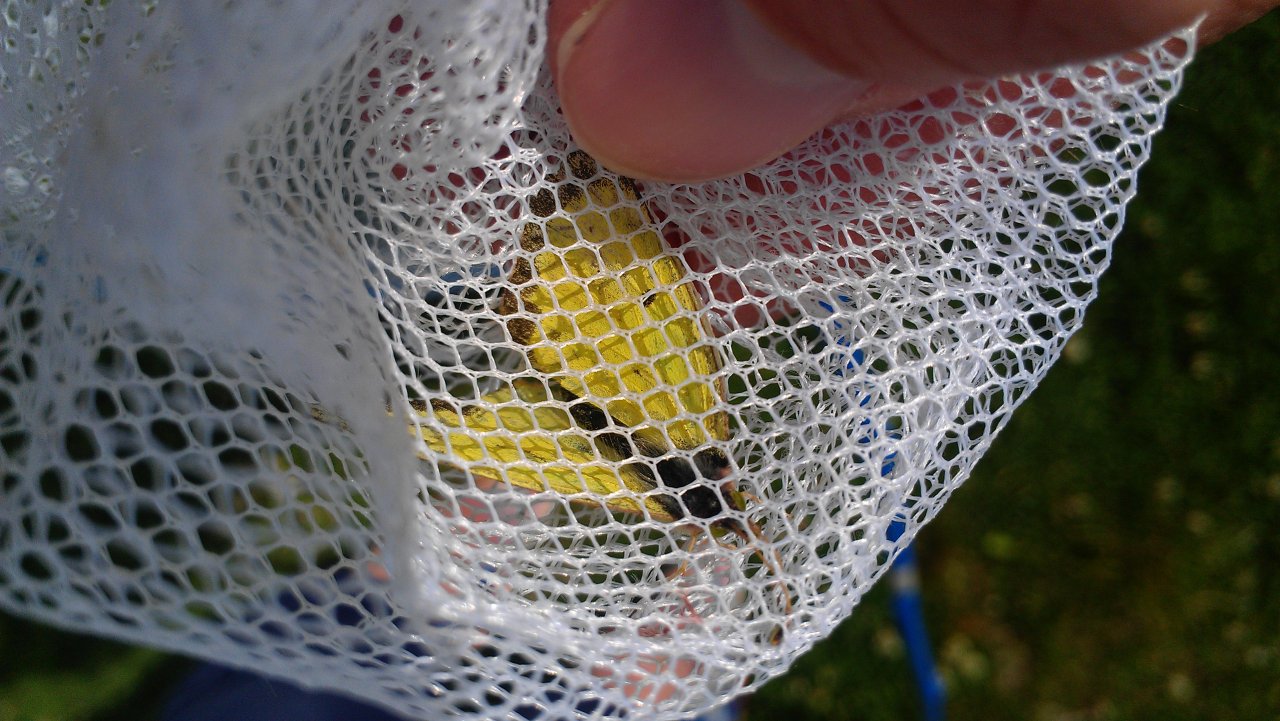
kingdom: Animalia
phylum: Arthropoda
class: Insecta
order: Lepidoptera
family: Pieridae
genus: Colias
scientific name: Colias philodice
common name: Clouded Sulphur
